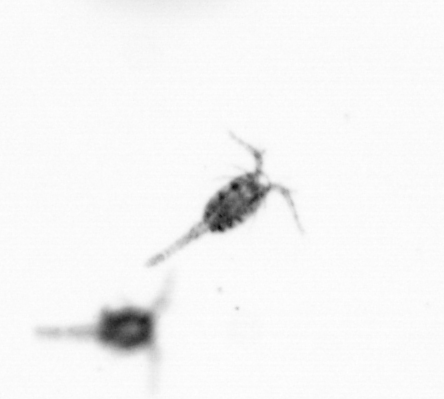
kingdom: Animalia
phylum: Arthropoda
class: Copepoda
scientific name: Copepoda
